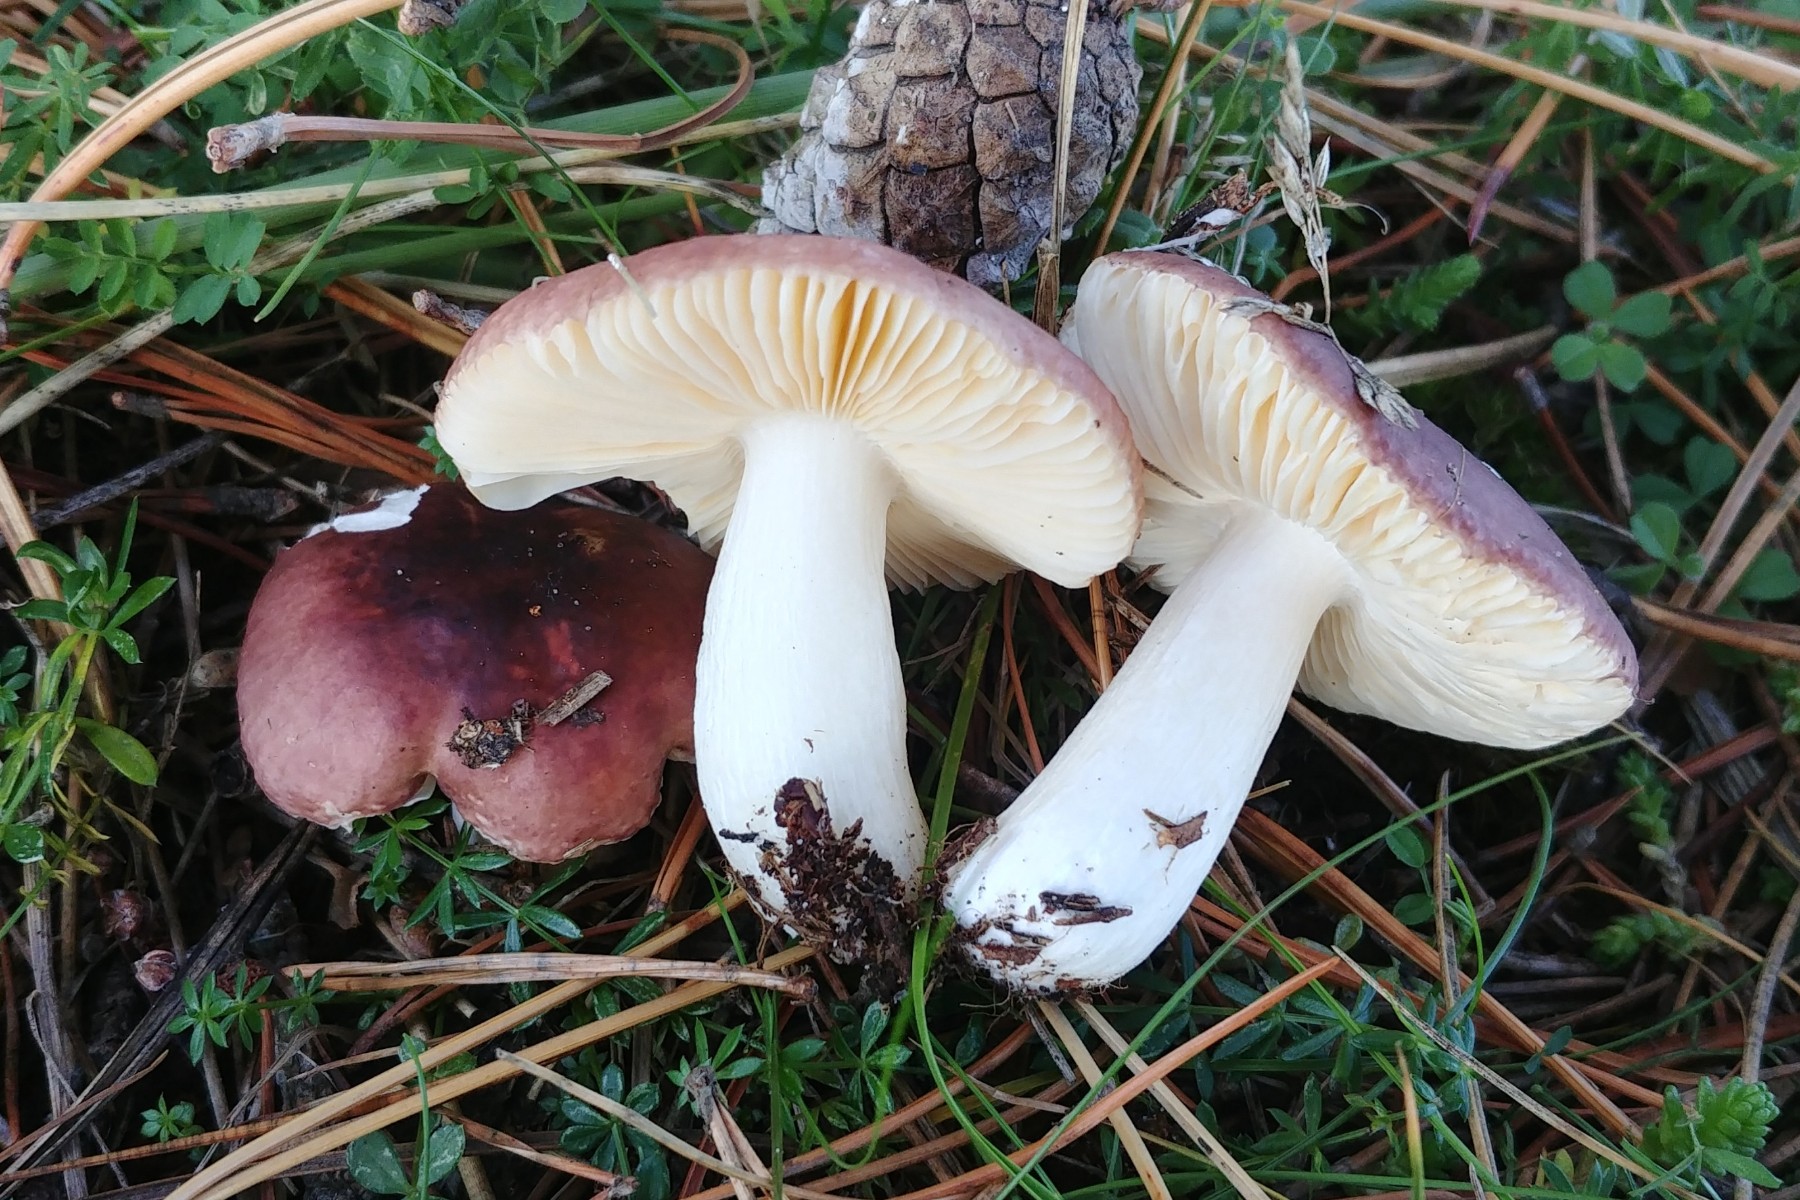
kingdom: Fungi
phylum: Basidiomycota
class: Agaricomycetes
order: Russulales
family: Russulaceae
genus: Russula
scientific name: Russula cessans
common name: fyrre-skørhat
